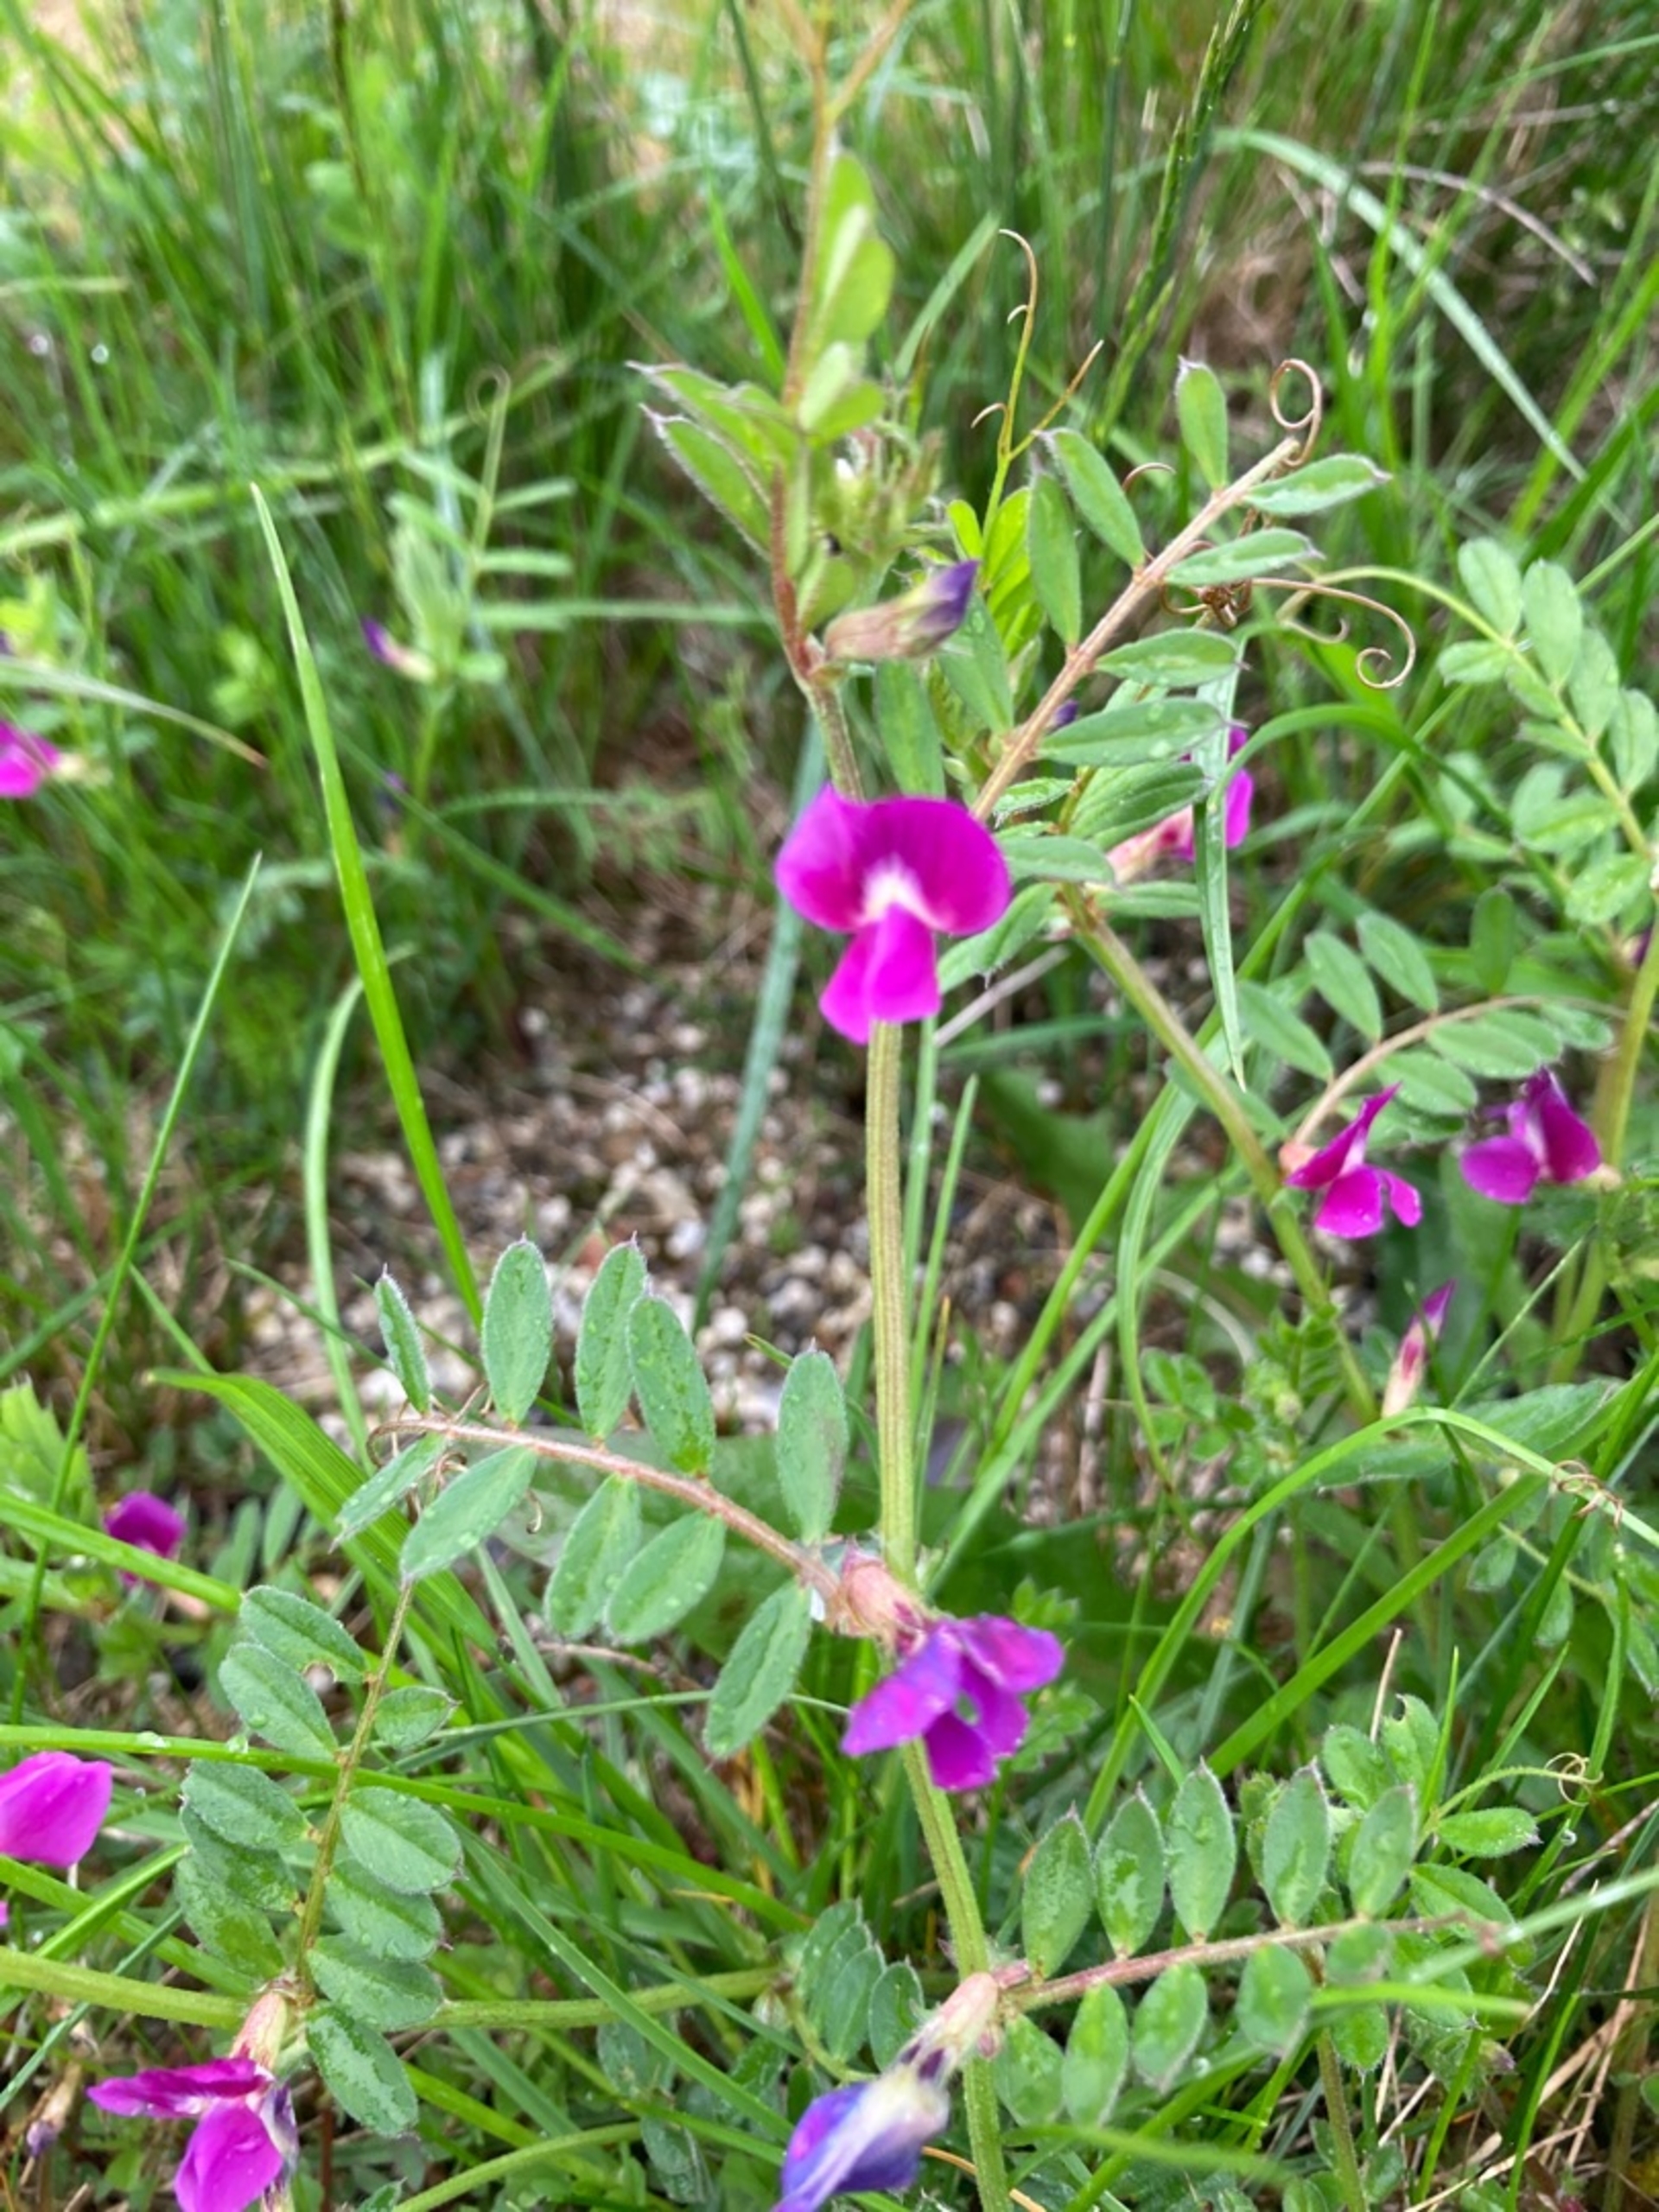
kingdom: Plantae
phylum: Tracheophyta
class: Magnoliopsida
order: Fabales
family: Fabaceae
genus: Vicia
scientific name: Vicia sativa
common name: Smalbladet vikke
